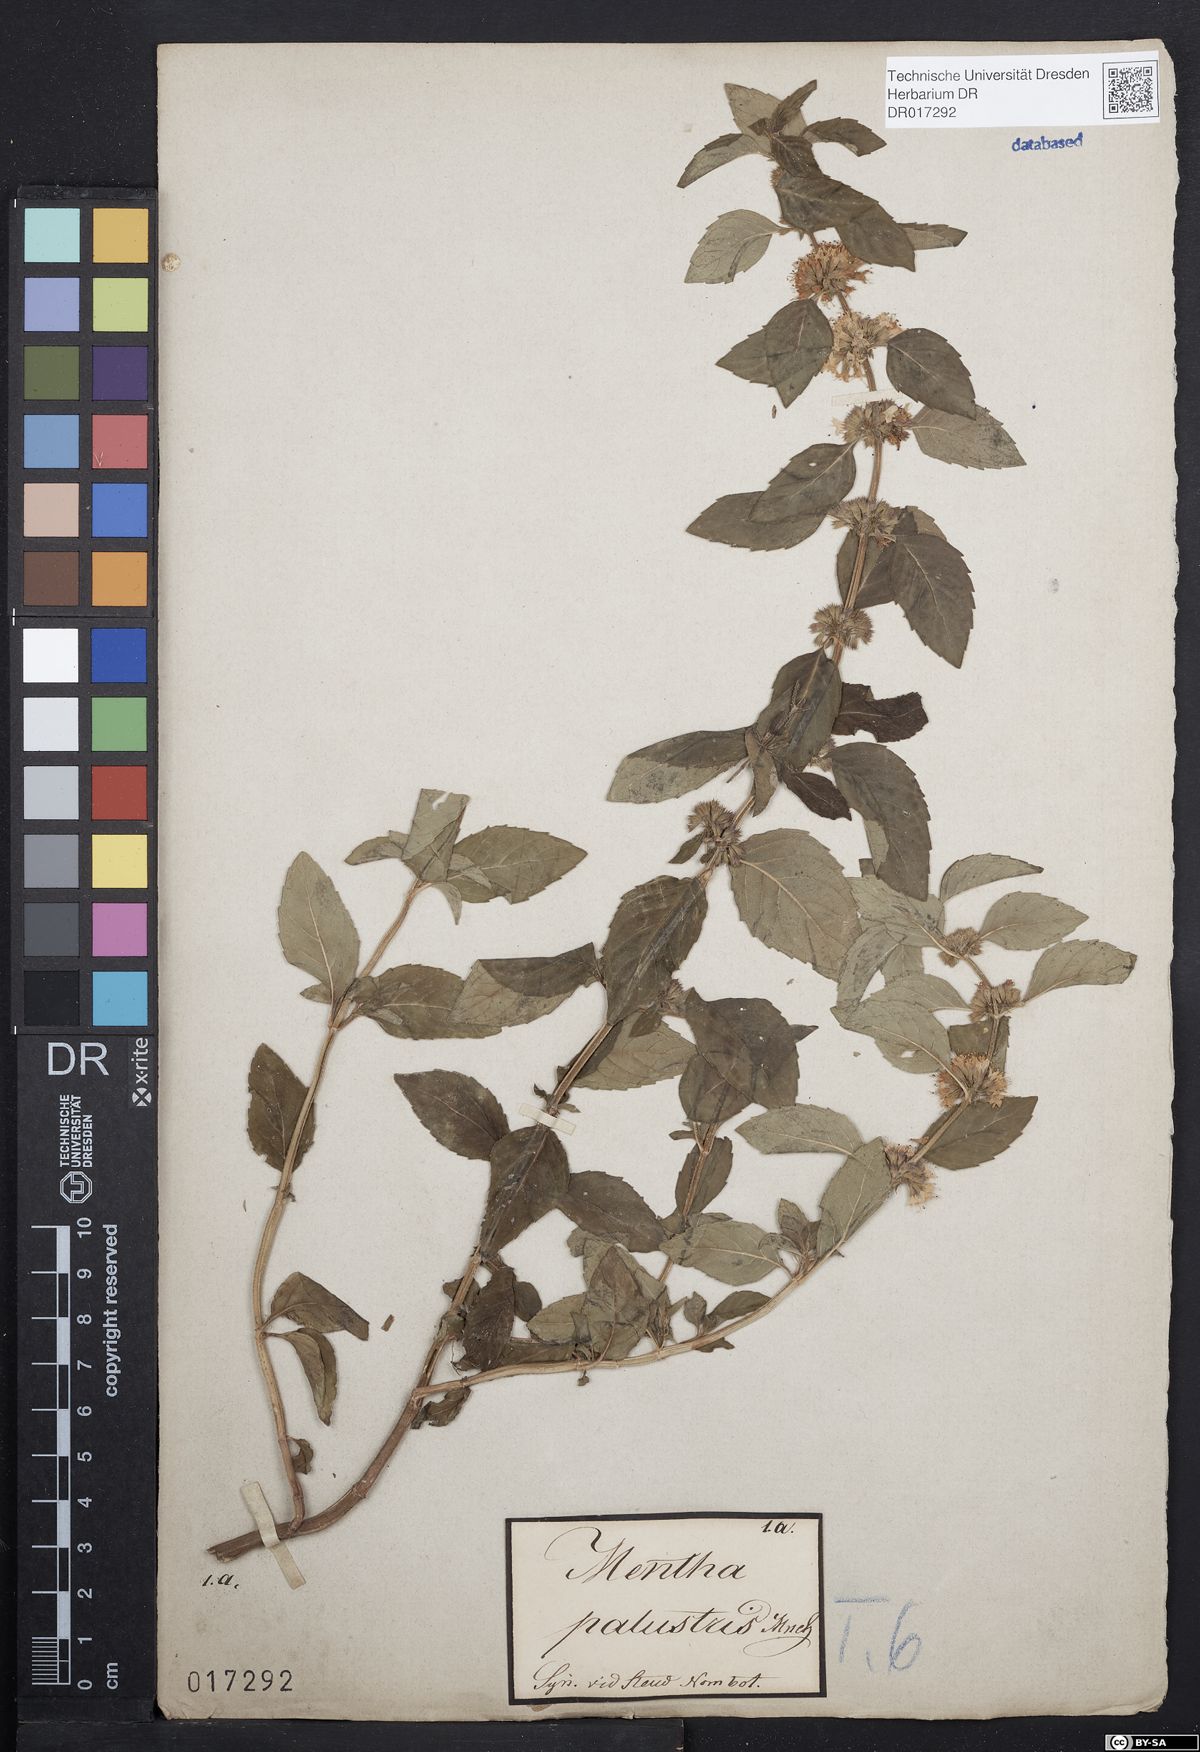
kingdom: Plantae
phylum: Tracheophyta
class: Magnoliopsida
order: Lamiales
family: Lamiaceae
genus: Mentha
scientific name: Mentha verticillata
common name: Mint
